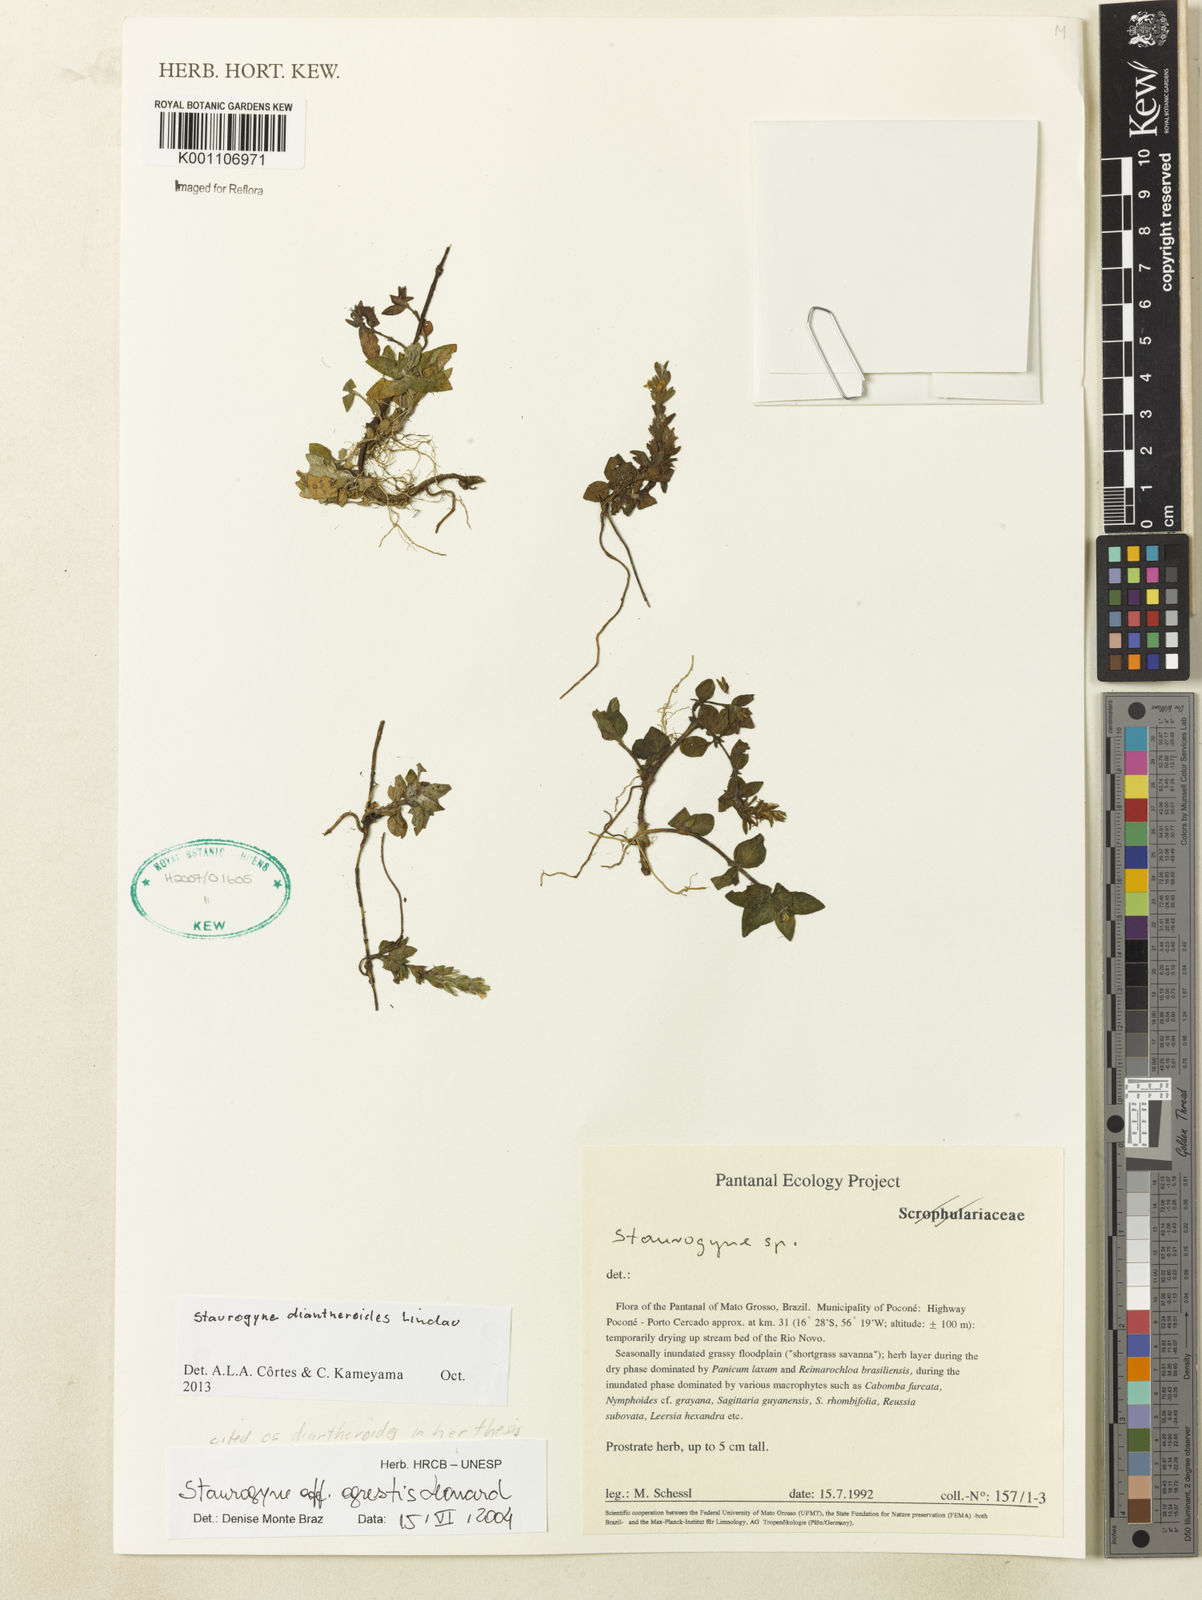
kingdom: Plantae
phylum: Tracheophyta
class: Magnoliopsida
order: Lamiales
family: Acanthaceae
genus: Staurogyne
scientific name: Staurogyne diantheroides
